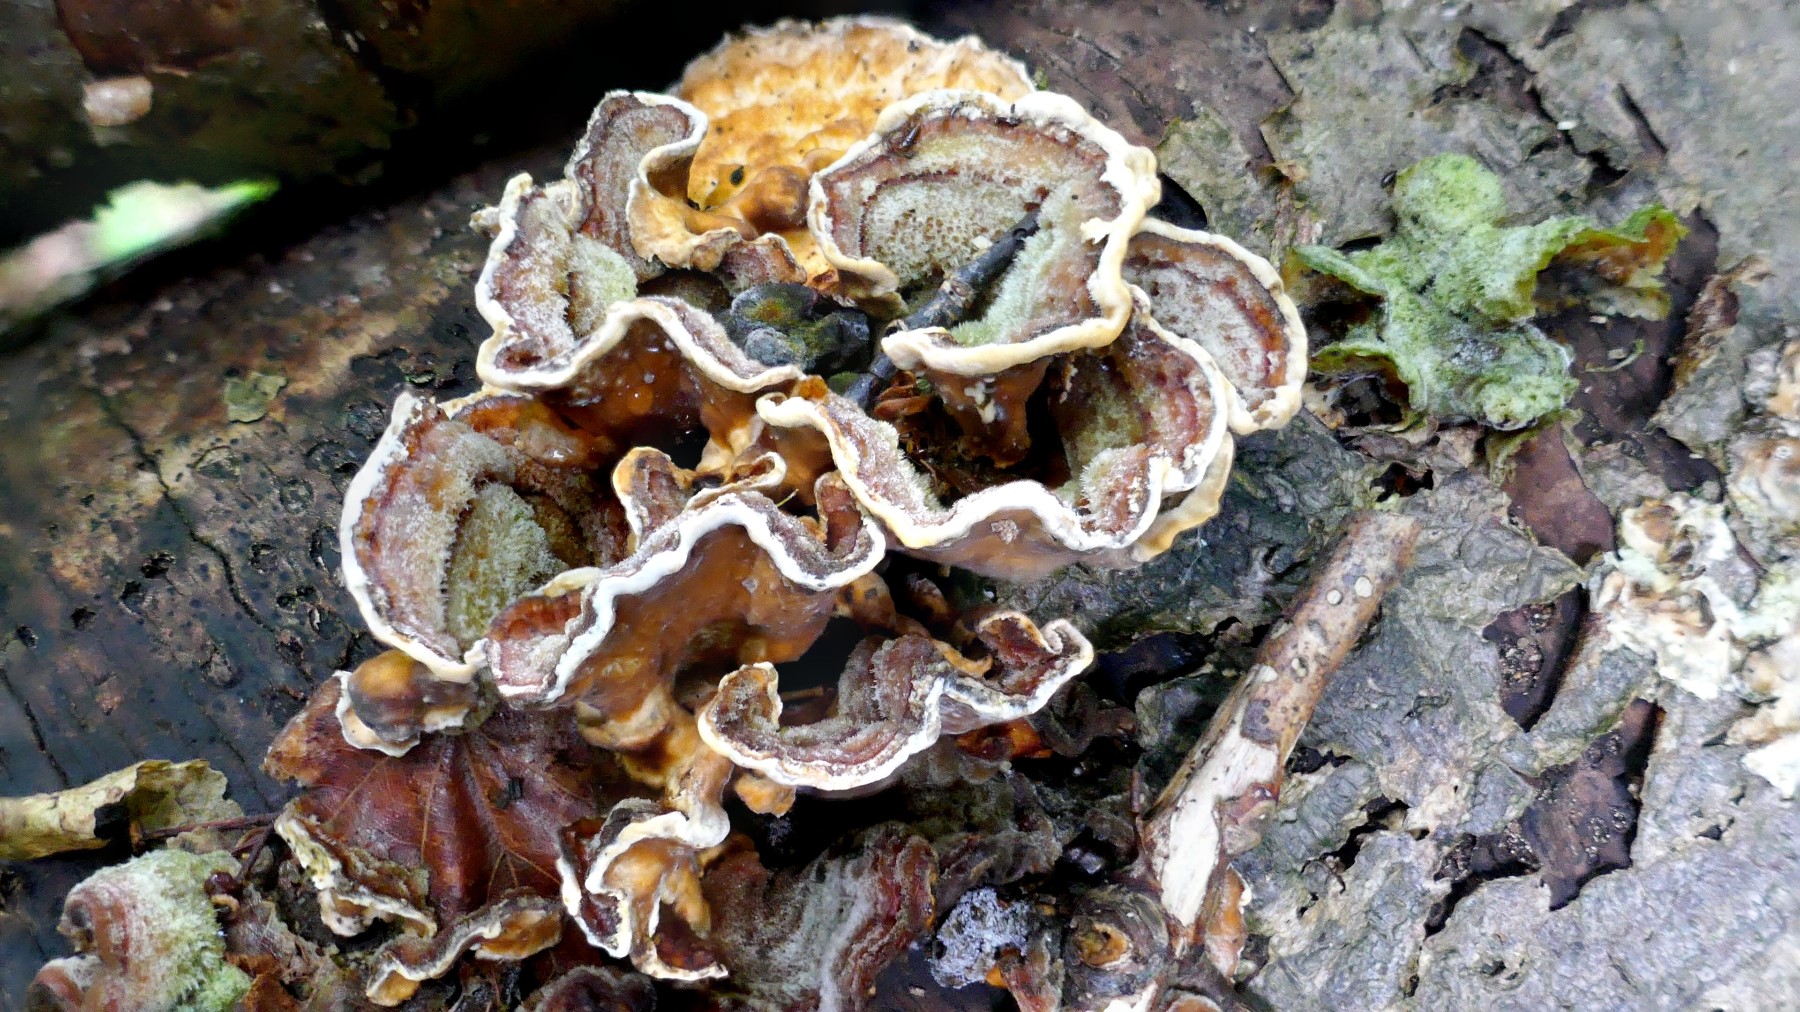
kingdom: Fungi
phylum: Basidiomycota
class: Agaricomycetes
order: Russulales
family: Stereaceae
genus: Stereum
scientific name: Stereum hirsutum
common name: håret lædersvamp
